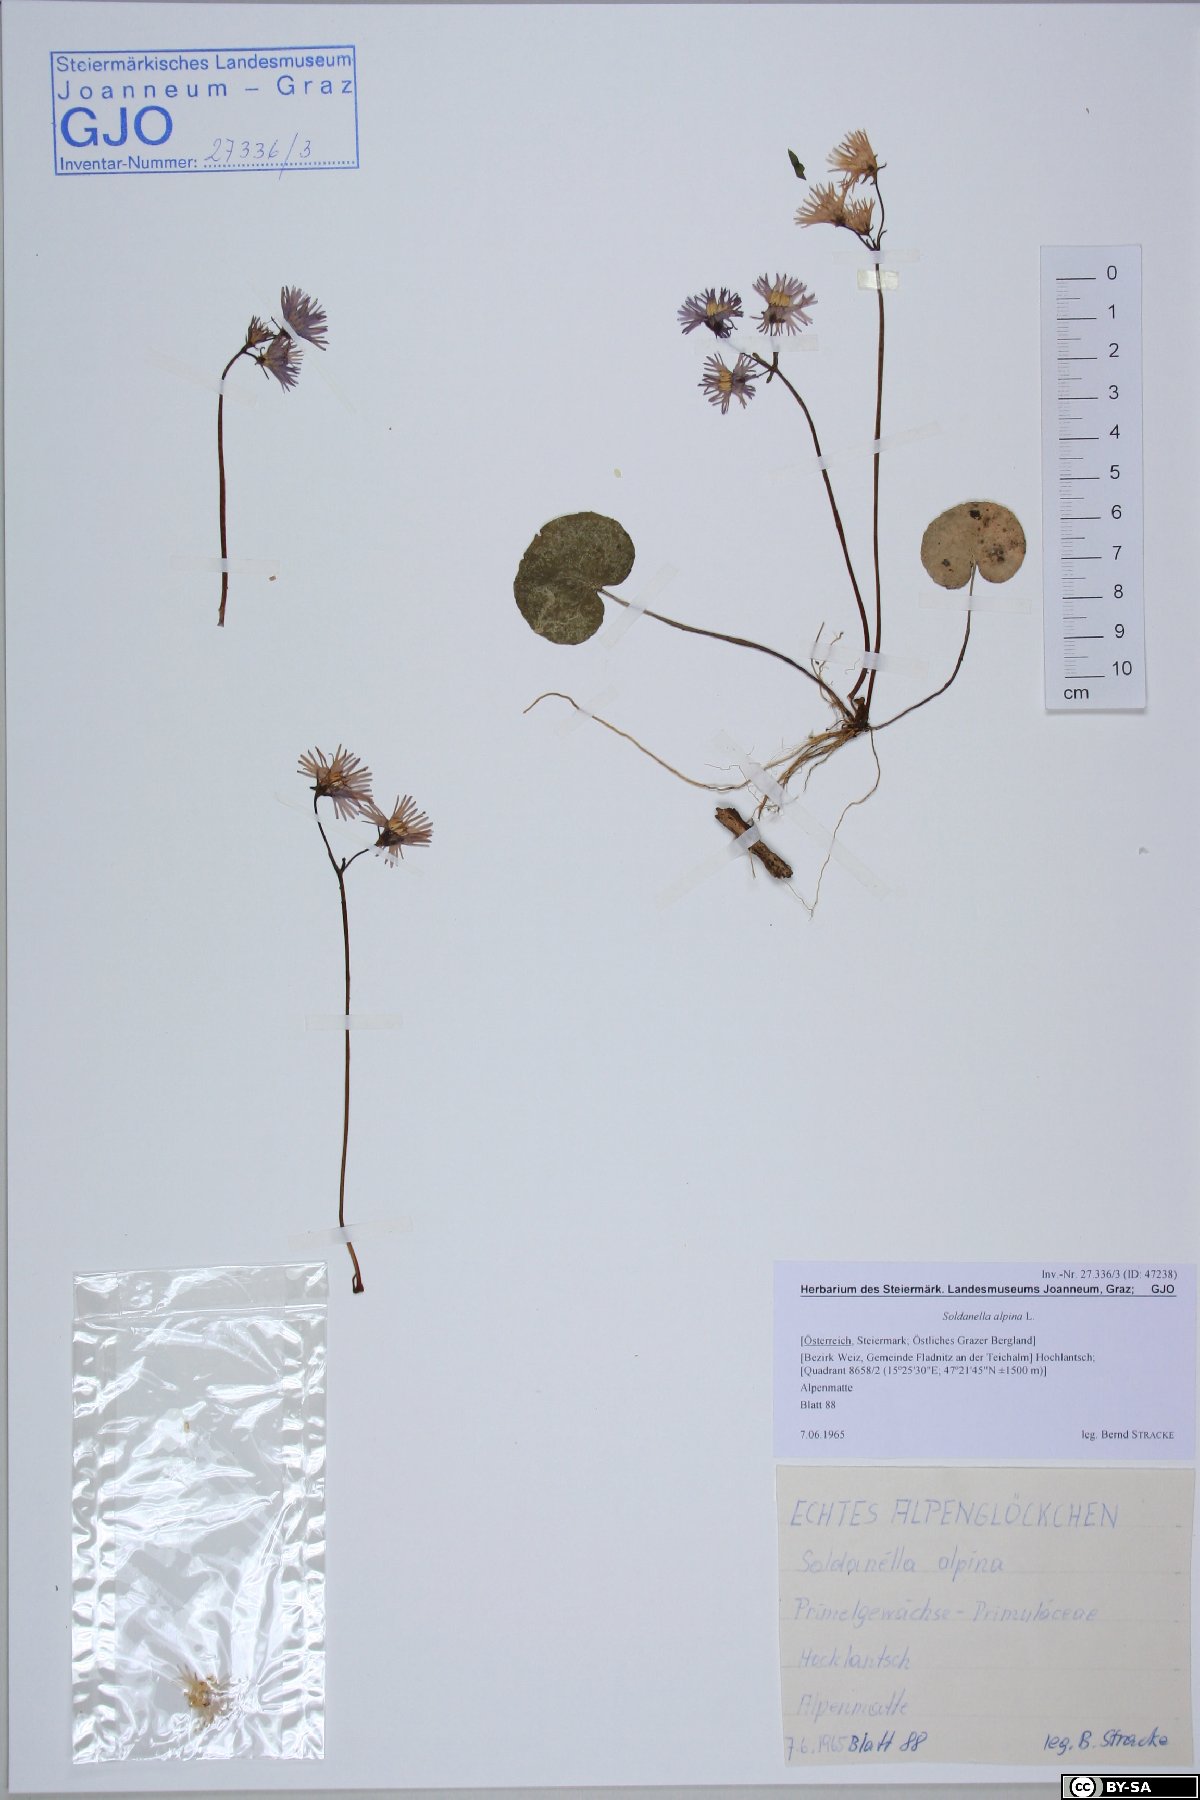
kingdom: Plantae
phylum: Tracheophyta
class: Magnoliopsida
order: Ericales
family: Primulaceae
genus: Soldanella
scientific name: Soldanella alpina
